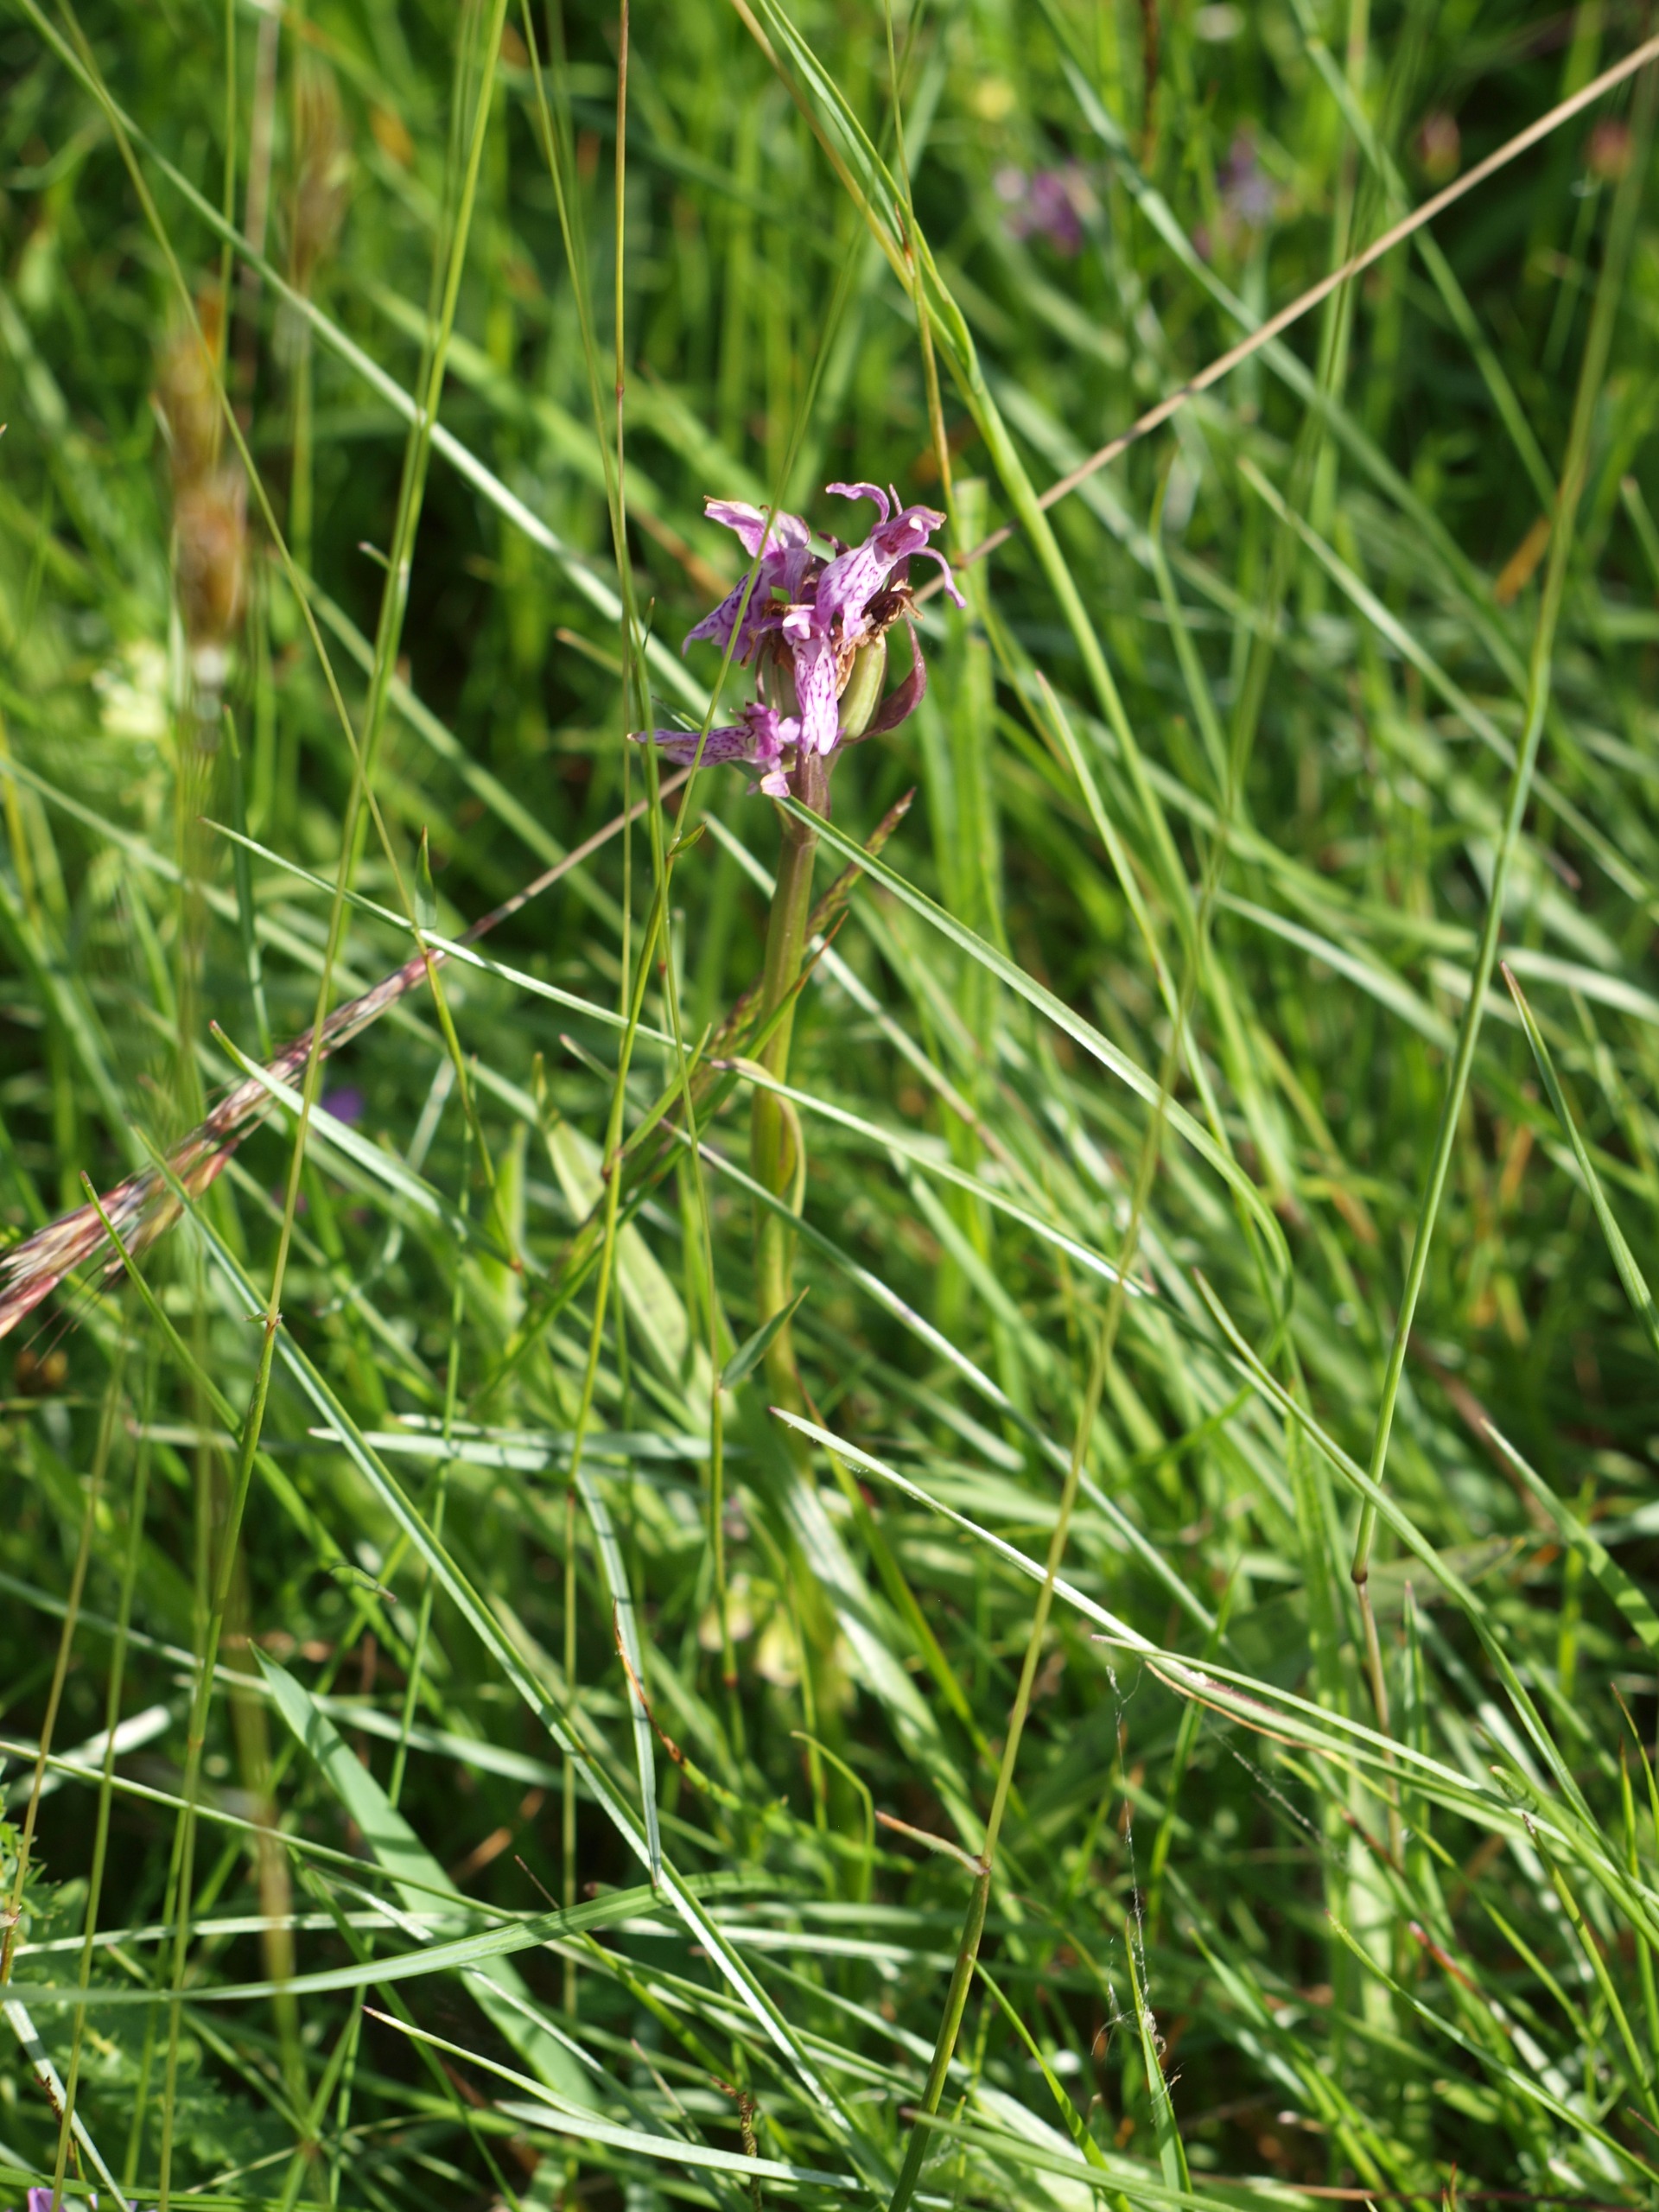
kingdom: Plantae
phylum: Tracheophyta
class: Magnoliopsida
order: Fabales
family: Polygalaceae
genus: Polygala
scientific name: Polygala vulgaris
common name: Almindelig mælkeurt
